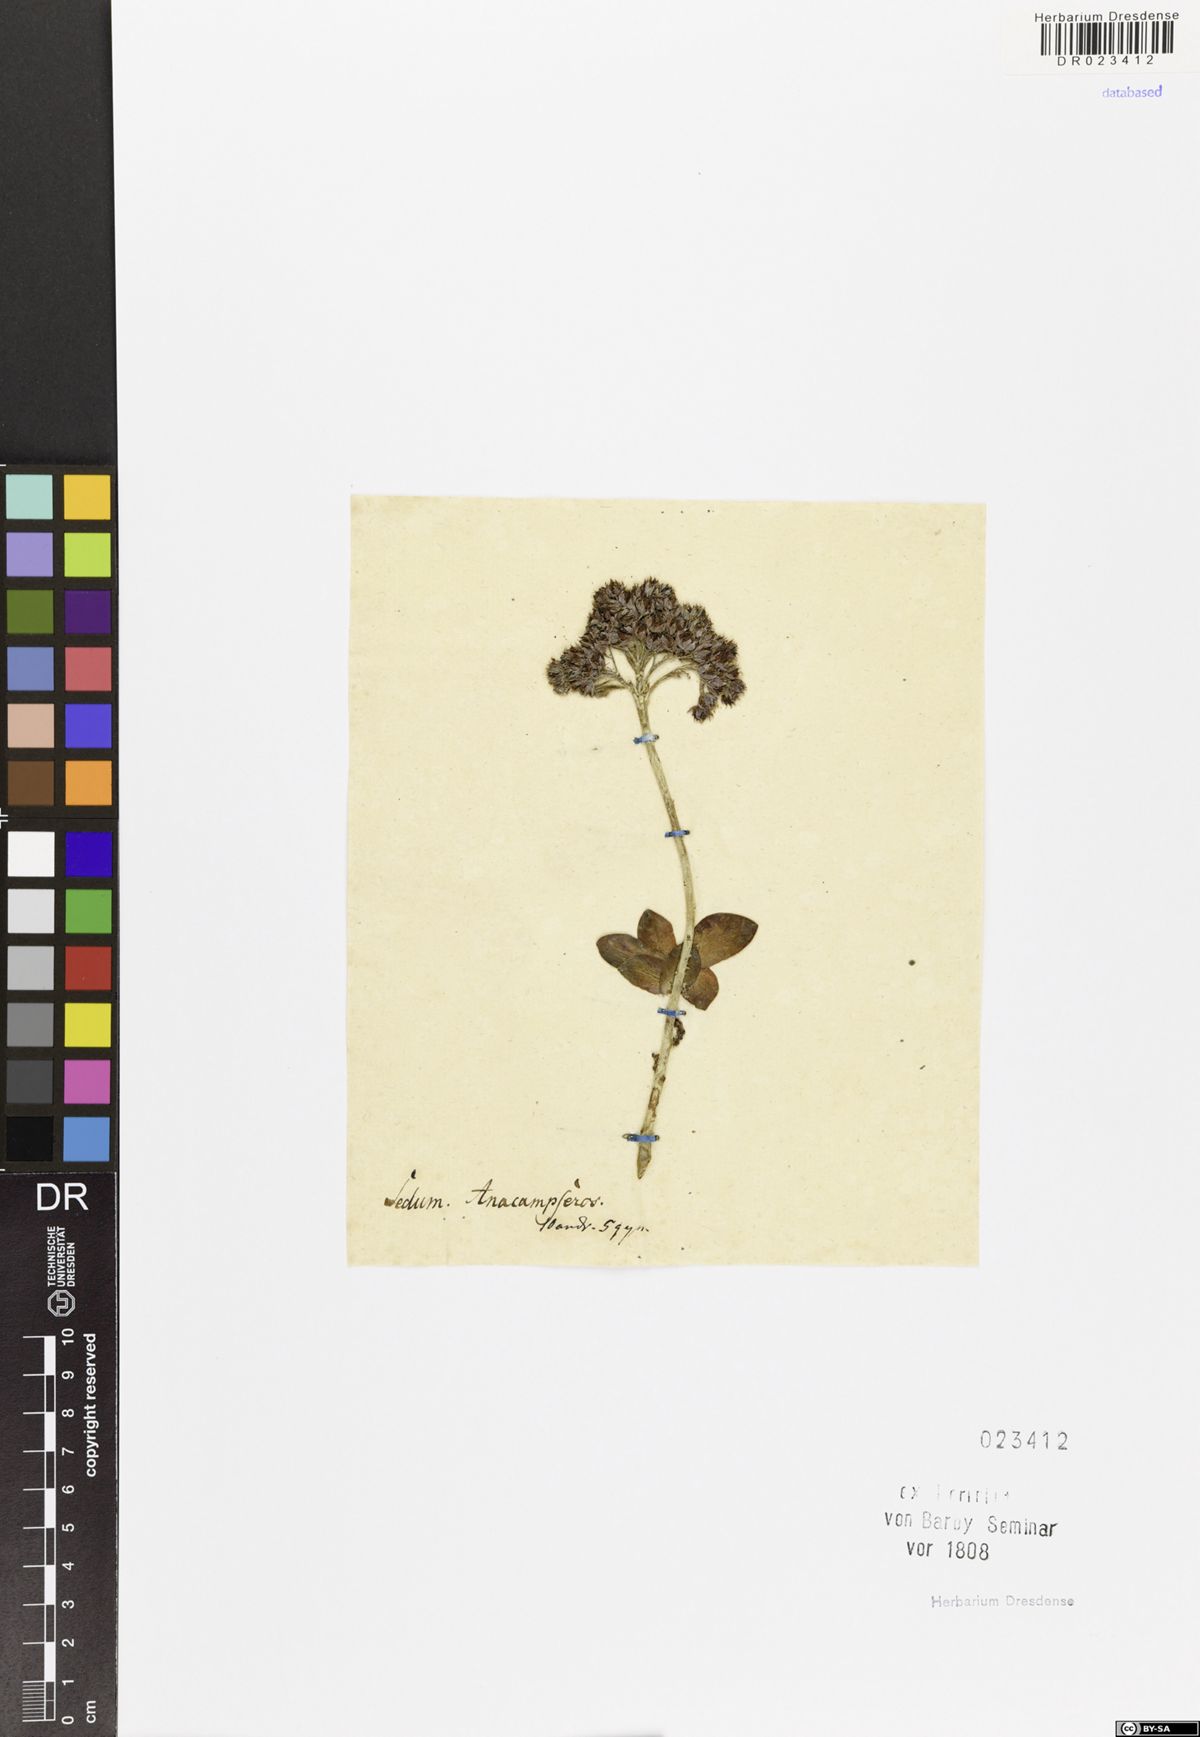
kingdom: Plantae
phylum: Tracheophyta
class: Magnoliopsida
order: Saxifragales
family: Crassulaceae
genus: Hylotelephium
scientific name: Hylotelephium anacampseros
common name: Love-restorer
